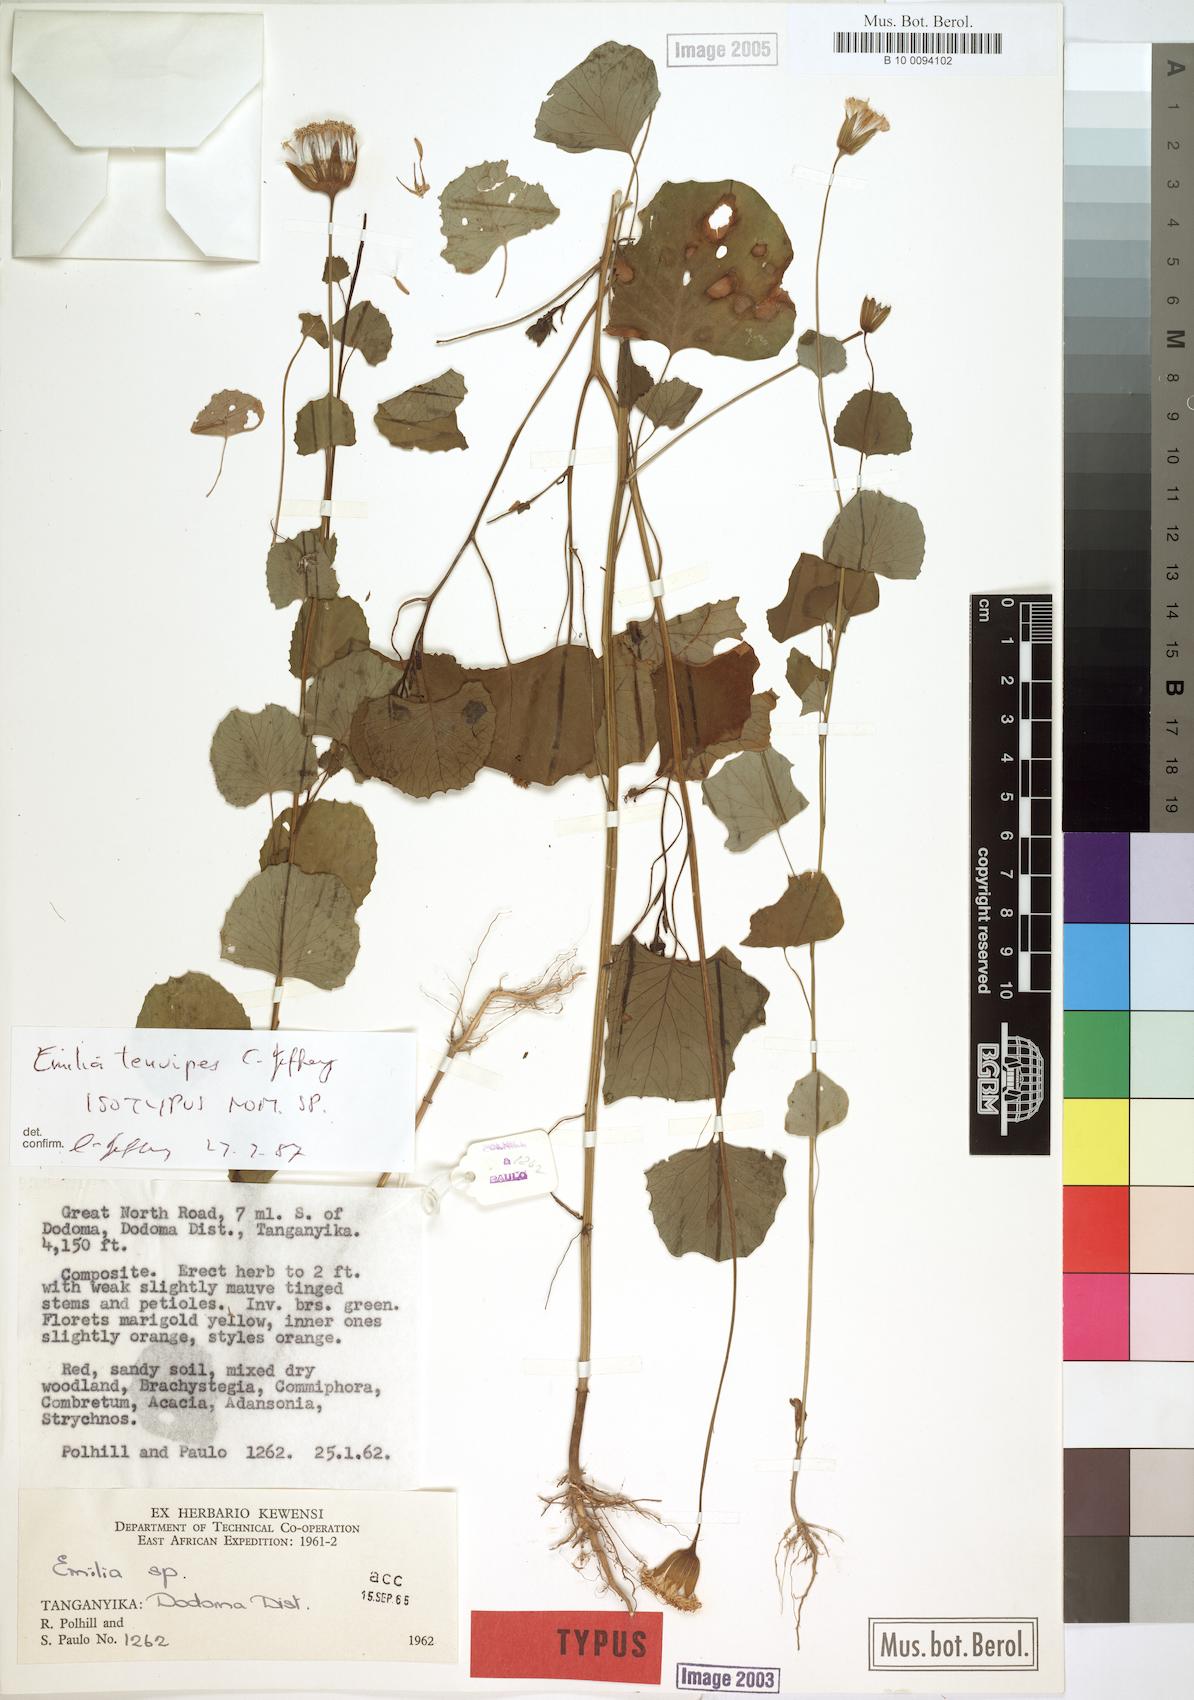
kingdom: Plantae
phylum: Tracheophyta
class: Magnoliopsida
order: Asterales
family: Asteraceae
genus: Emilia
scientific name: Emilia tenuipes
